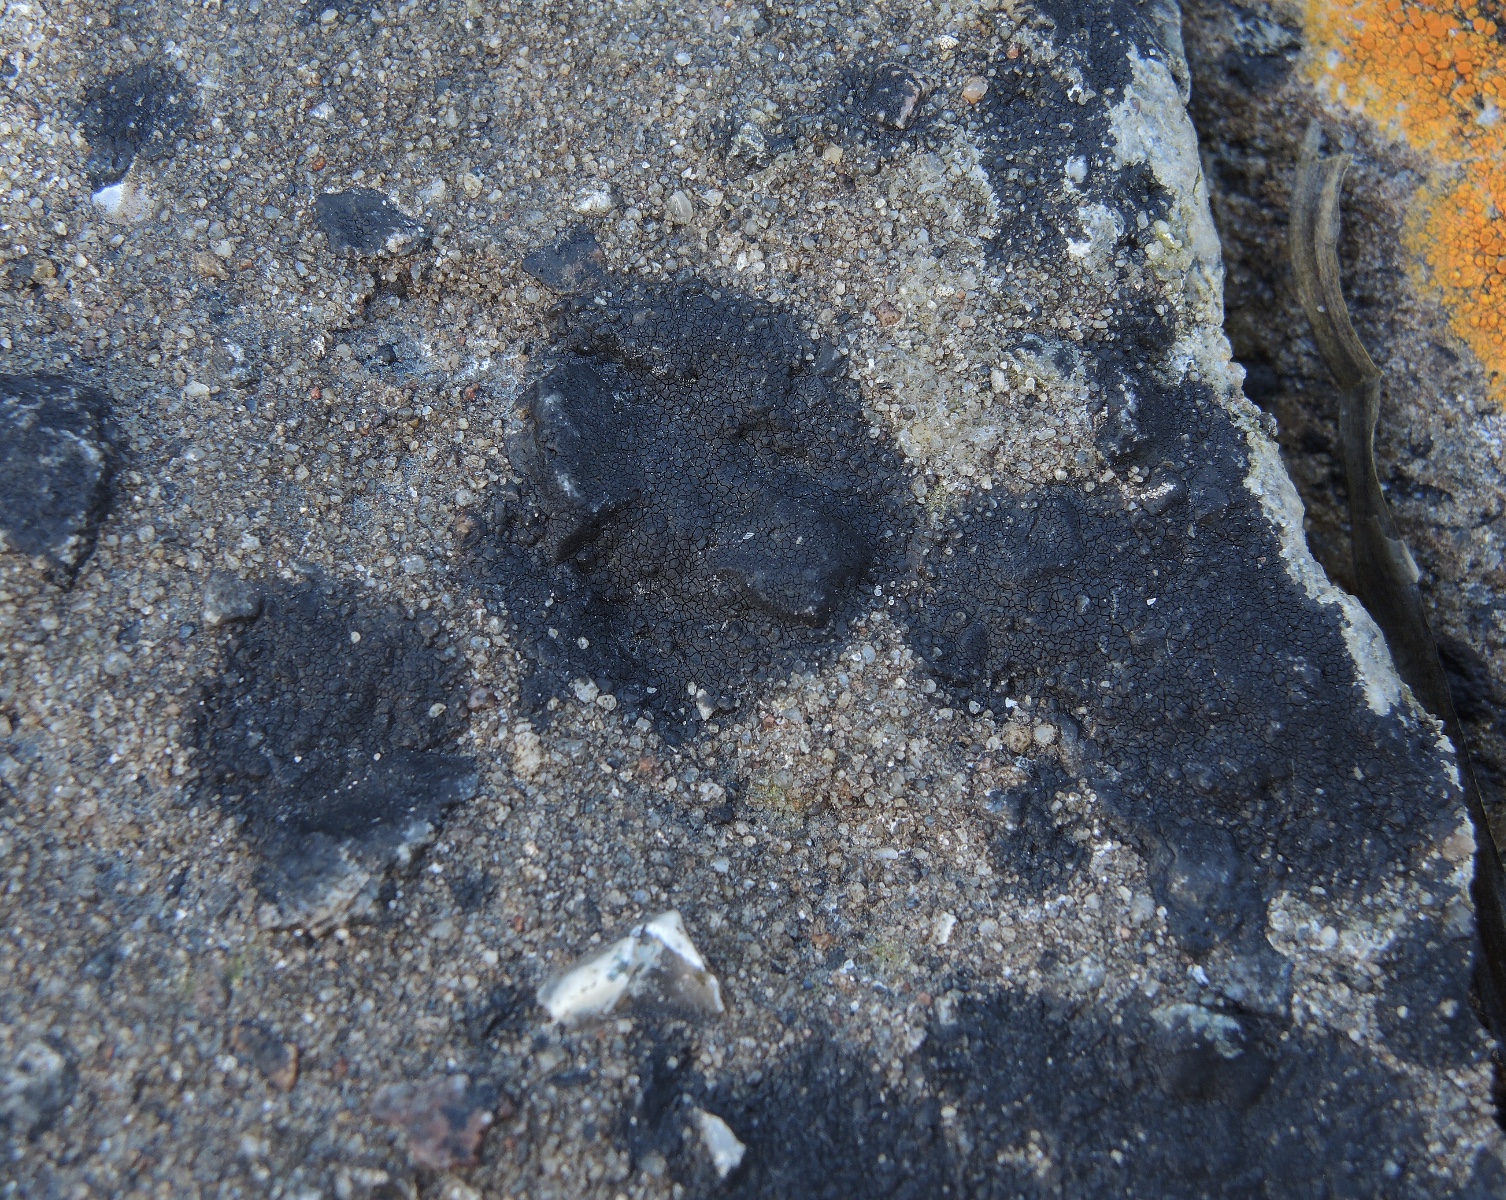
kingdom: Fungi
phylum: Ascomycota
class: Eurotiomycetes
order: Verrucariales
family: Verrucariaceae
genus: Hydropunctaria
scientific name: Hydropunctaria maura
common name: strand-vortelav
